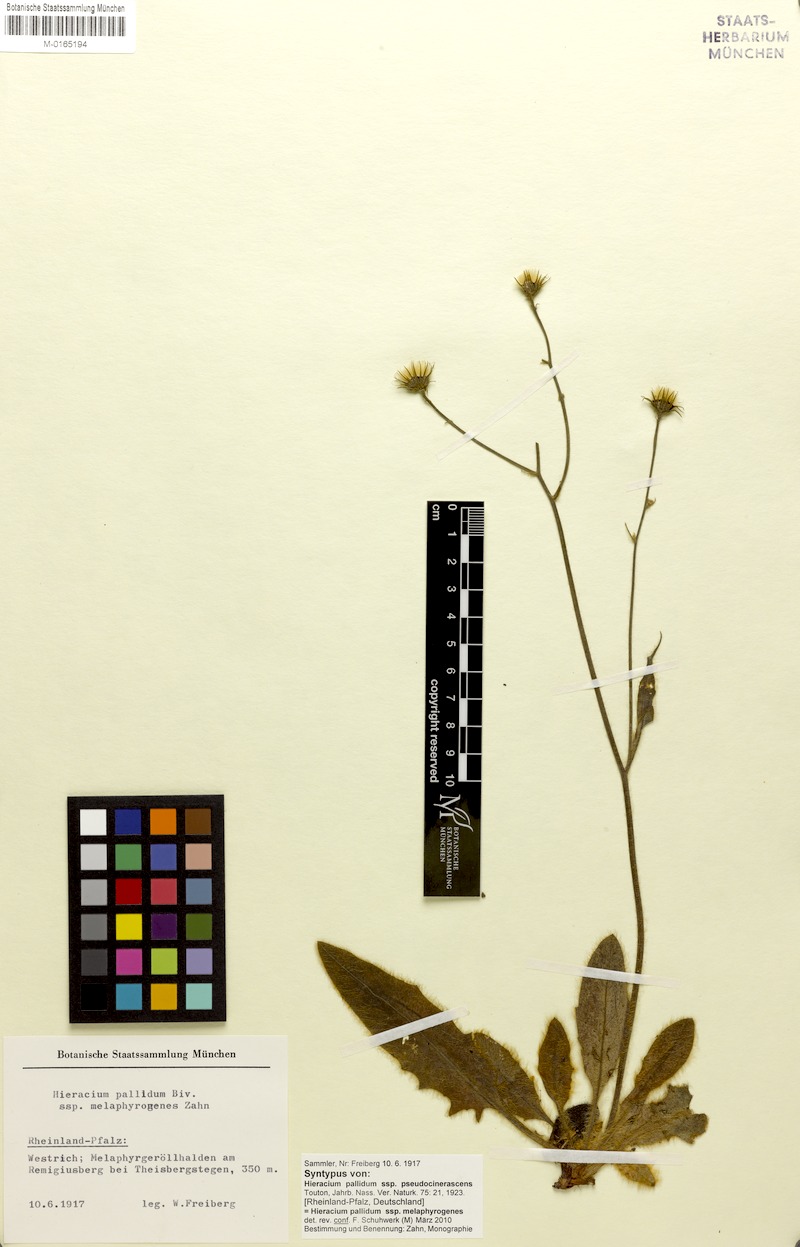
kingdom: Plantae
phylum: Tracheophyta
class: Magnoliopsida
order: Asterales
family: Asteraceae
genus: Hieracium
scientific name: Hieracium schmidtii
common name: Schmidt's hawkweed
